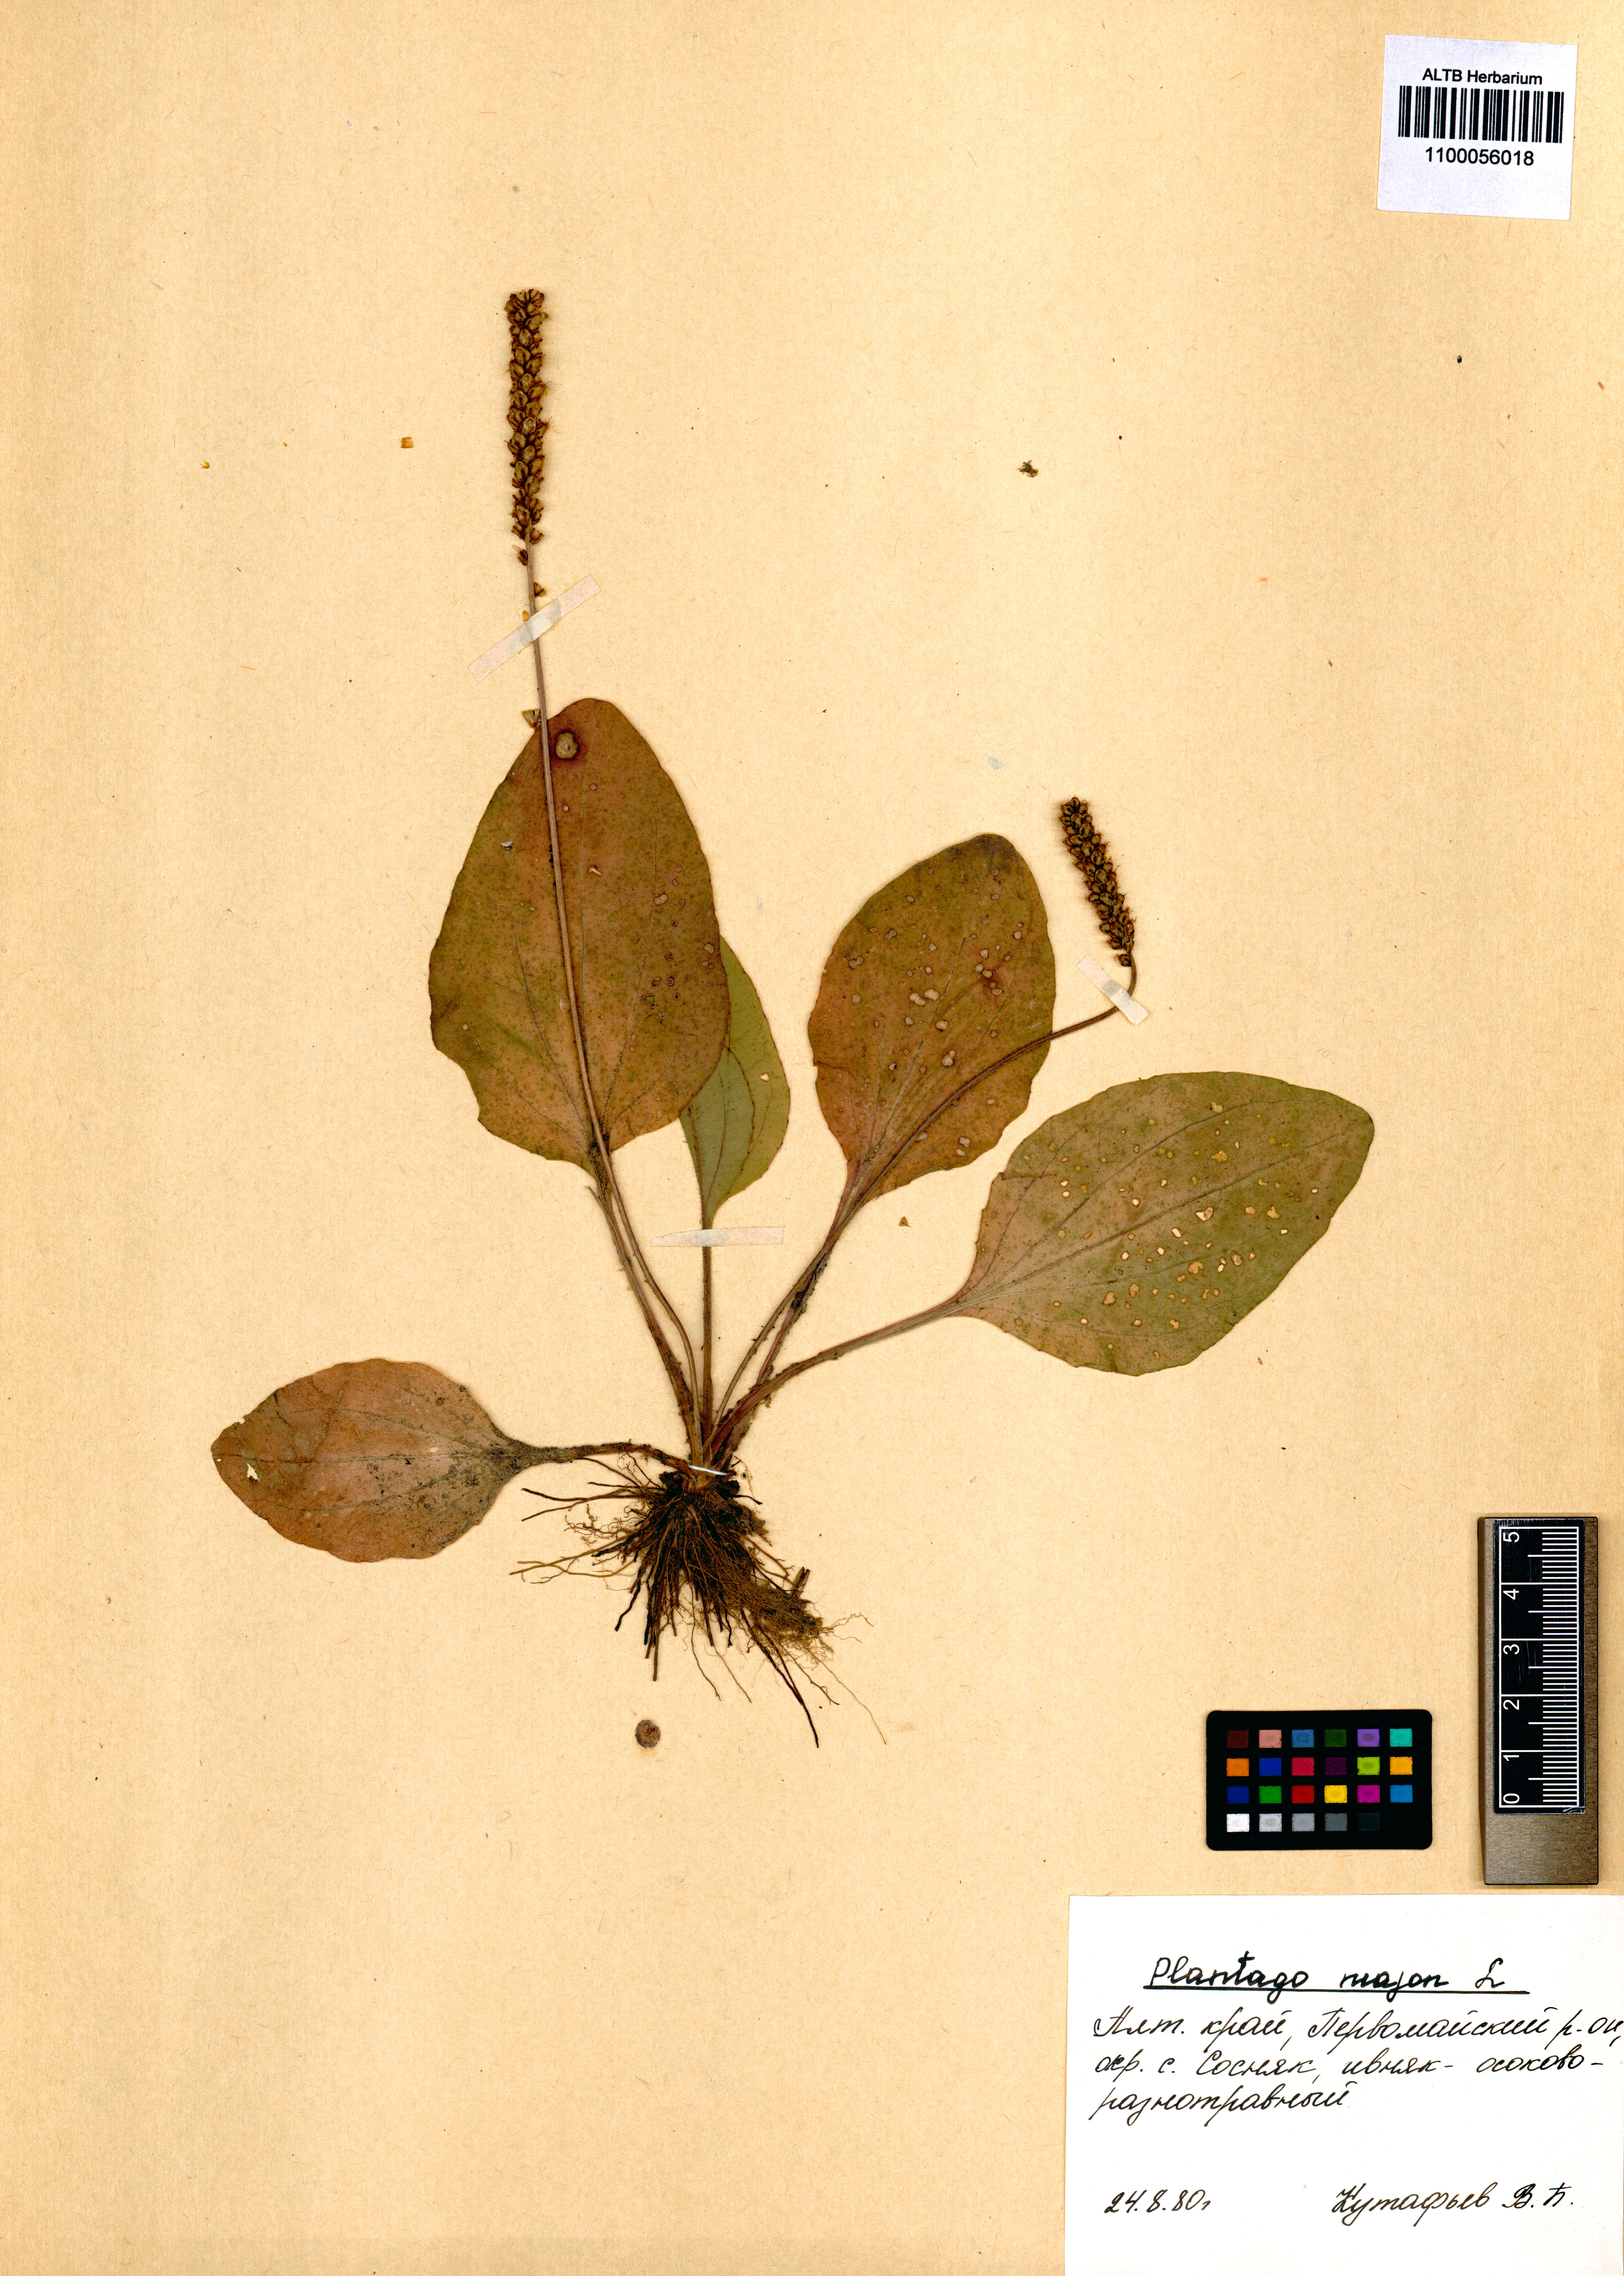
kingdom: Plantae
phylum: Tracheophyta
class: Magnoliopsida
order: Lamiales
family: Plantaginaceae
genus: Plantago
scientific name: Plantago major
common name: Common plantain
